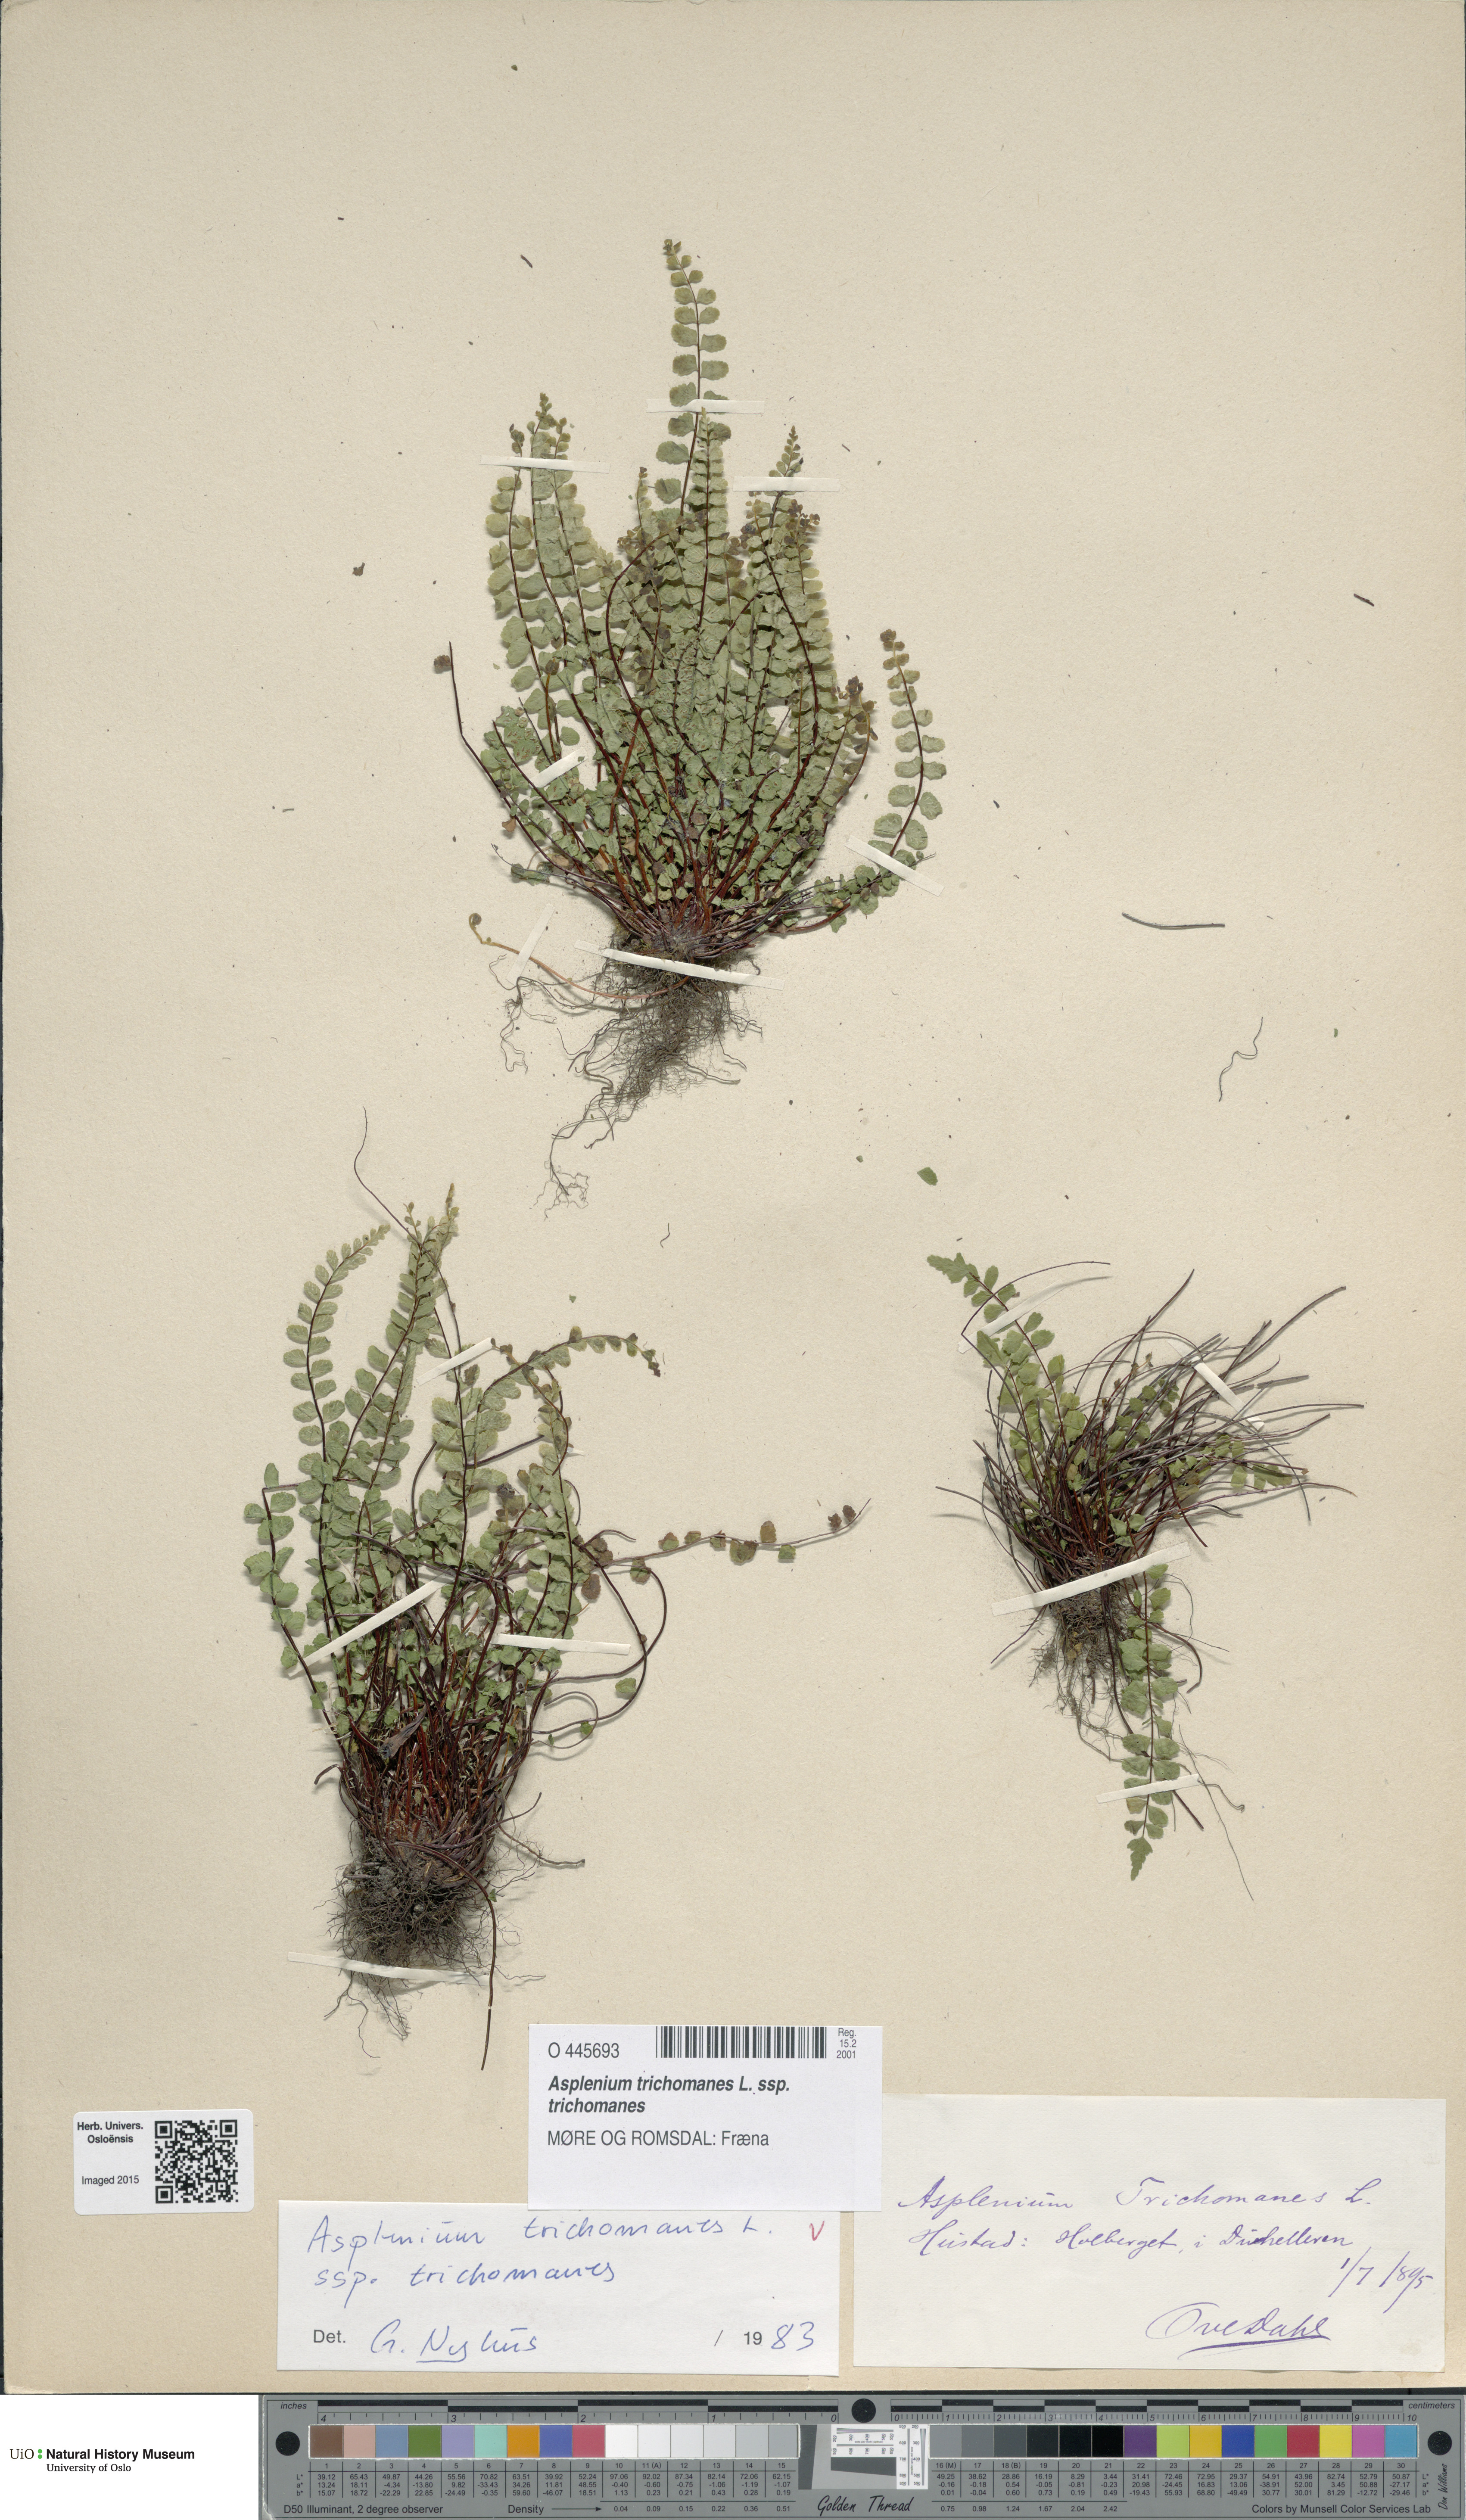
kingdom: Plantae
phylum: Tracheophyta
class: Polypodiopsida
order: Polypodiales
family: Aspleniaceae
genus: Asplenium
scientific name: Asplenium trichomanes
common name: Maidenhair spleenwort
